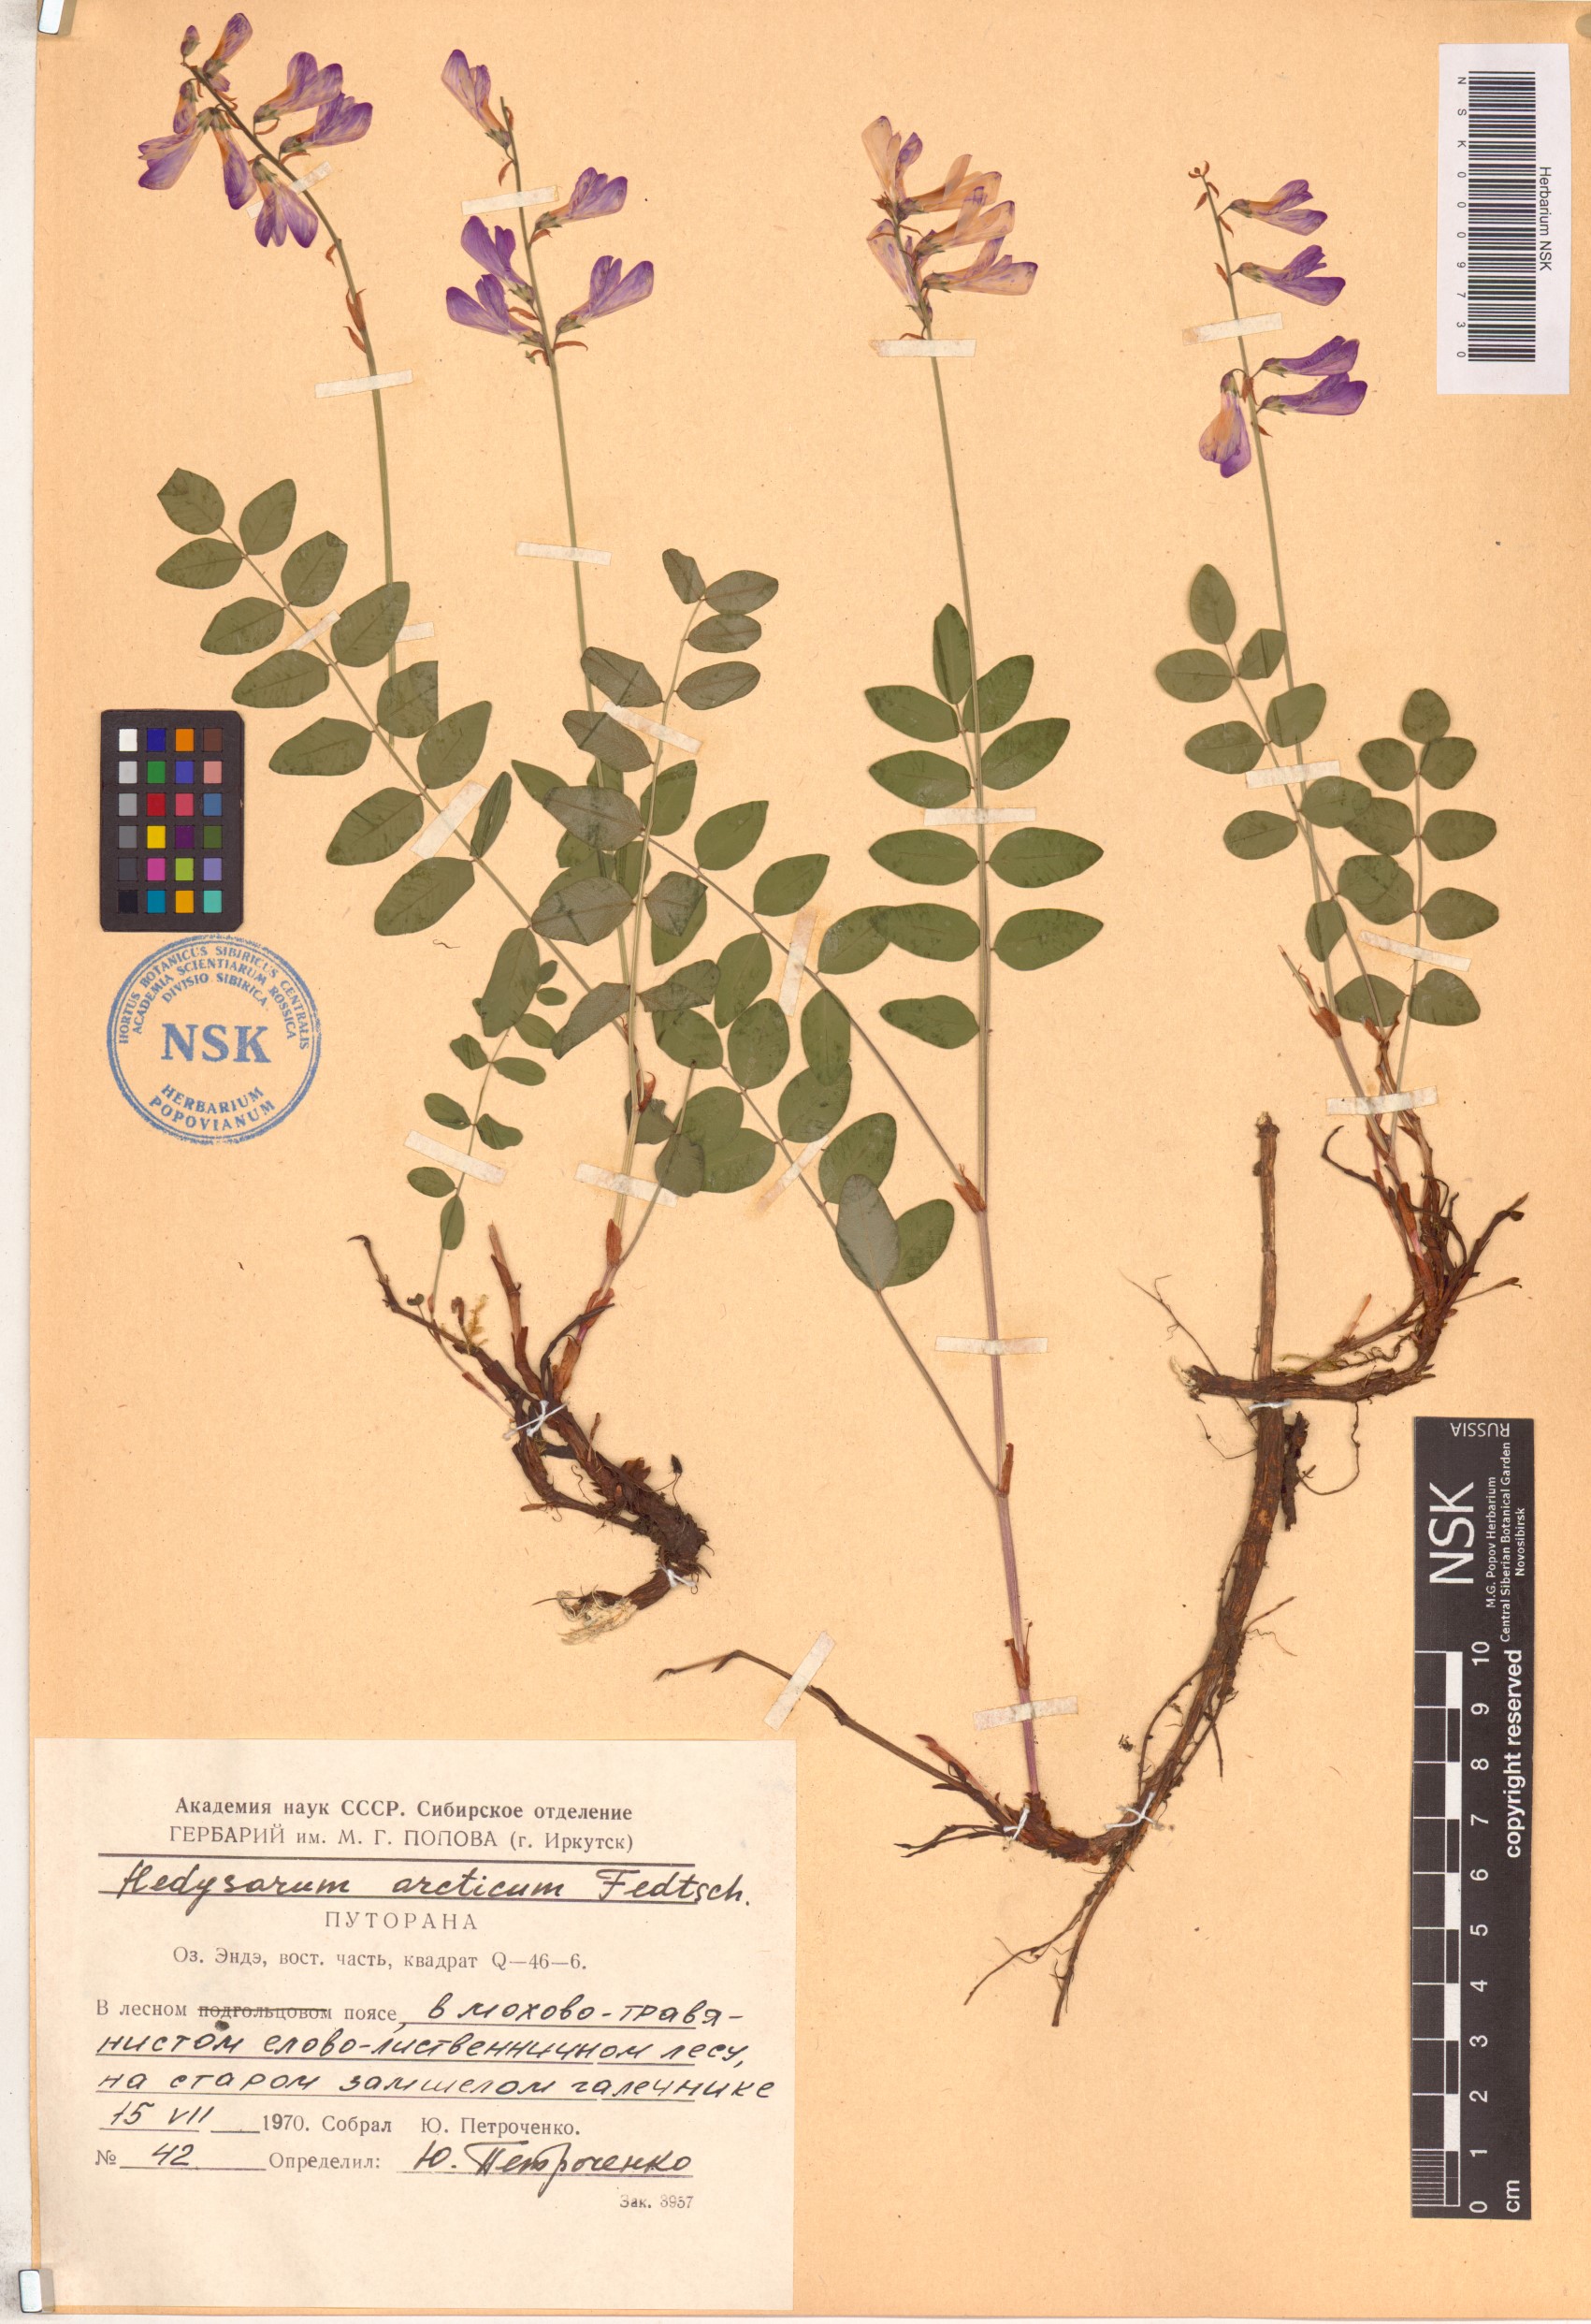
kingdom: Plantae
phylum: Tracheophyta
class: Magnoliopsida
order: Fabales
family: Fabaceae
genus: Hedysarum
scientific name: Hedysarum hedysaroides
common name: Alpine french-honeysuckle
